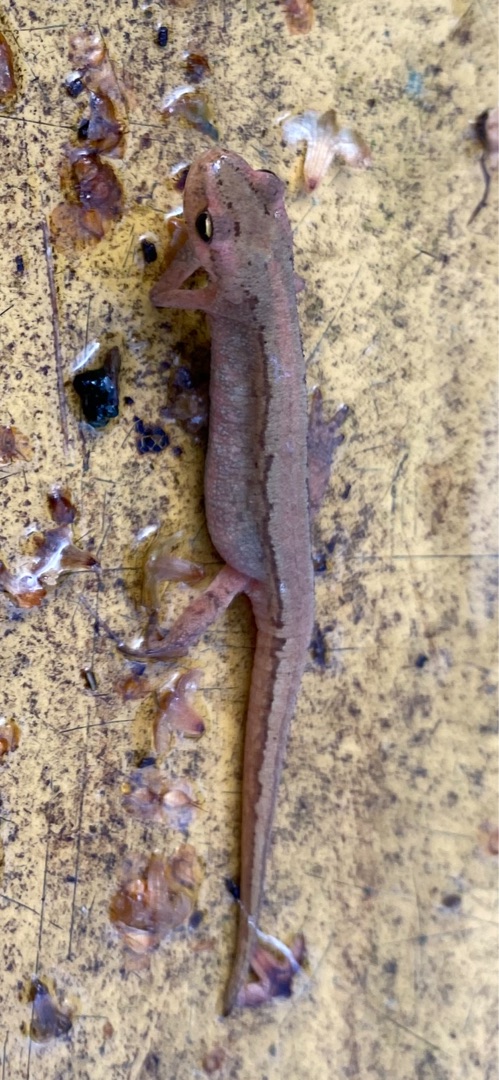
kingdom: Animalia
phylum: Chordata
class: Amphibia
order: Caudata
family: Salamandridae
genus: Lissotriton
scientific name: Lissotriton vulgaris
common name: Lille vandsalamander
